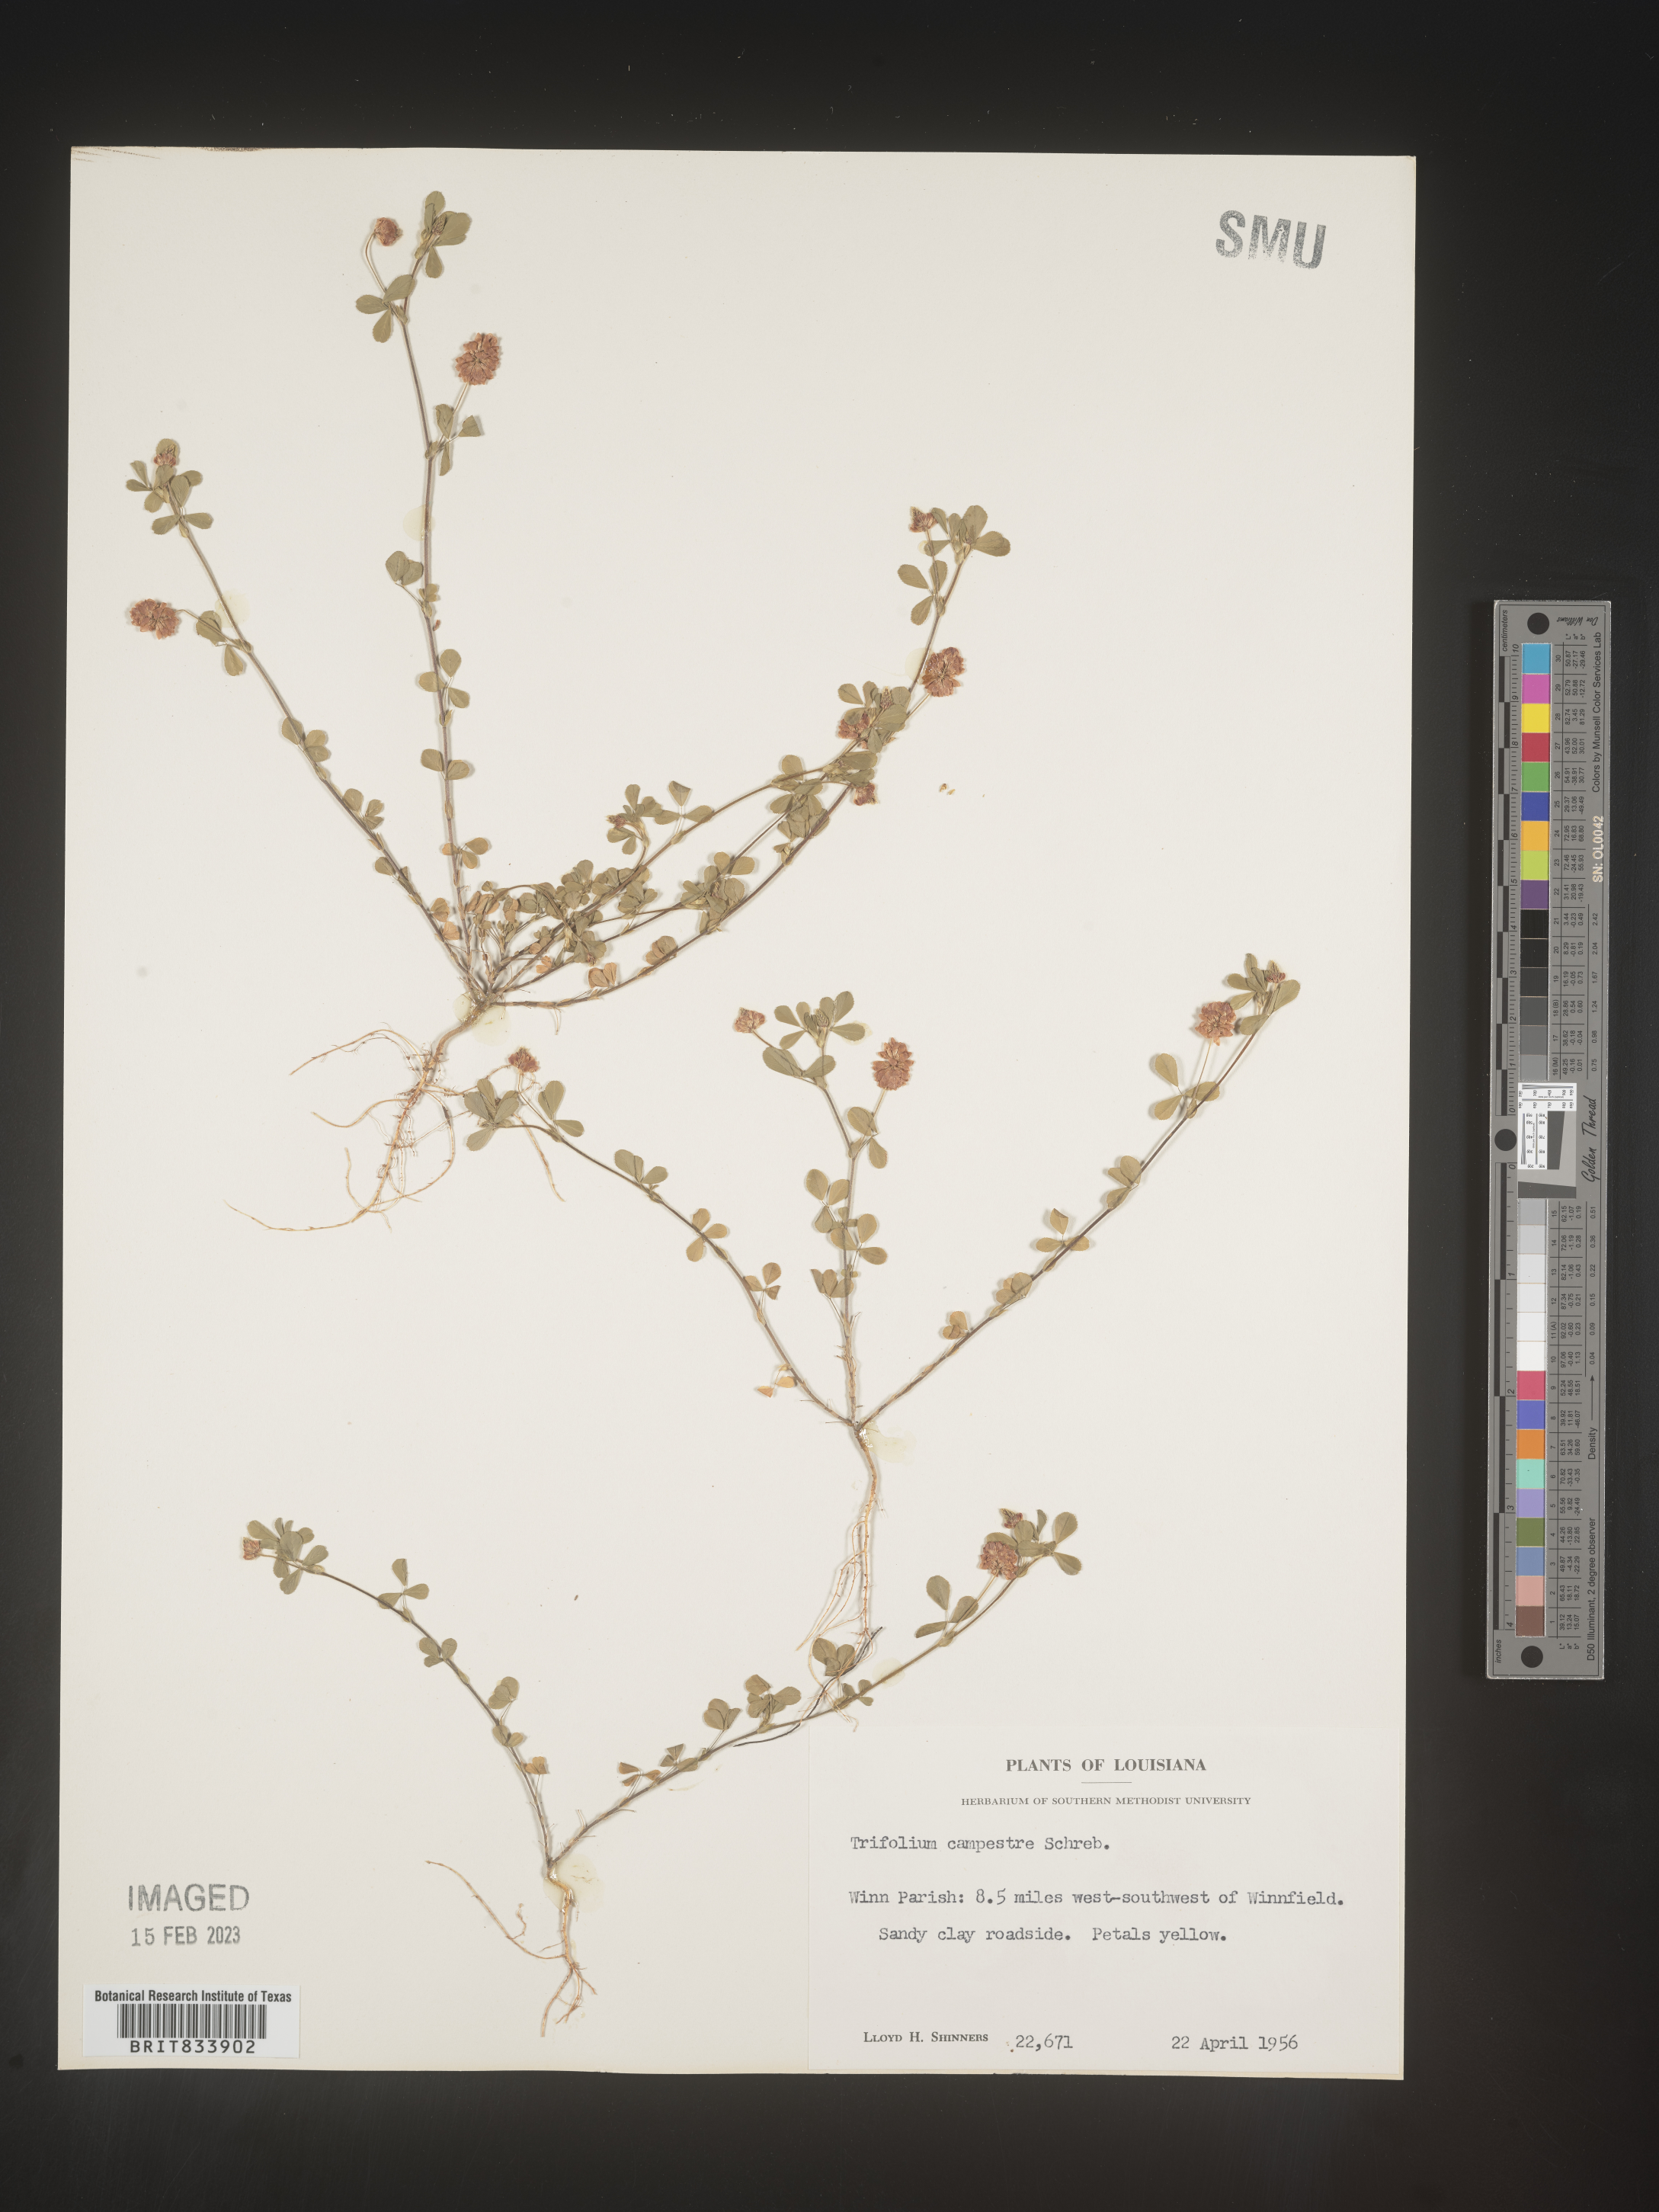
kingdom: Plantae
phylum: Tracheophyta
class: Magnoliopsida
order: Fabales
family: Fabaceae
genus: Trifolium
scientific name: Trifolium campestre
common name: Field clover
